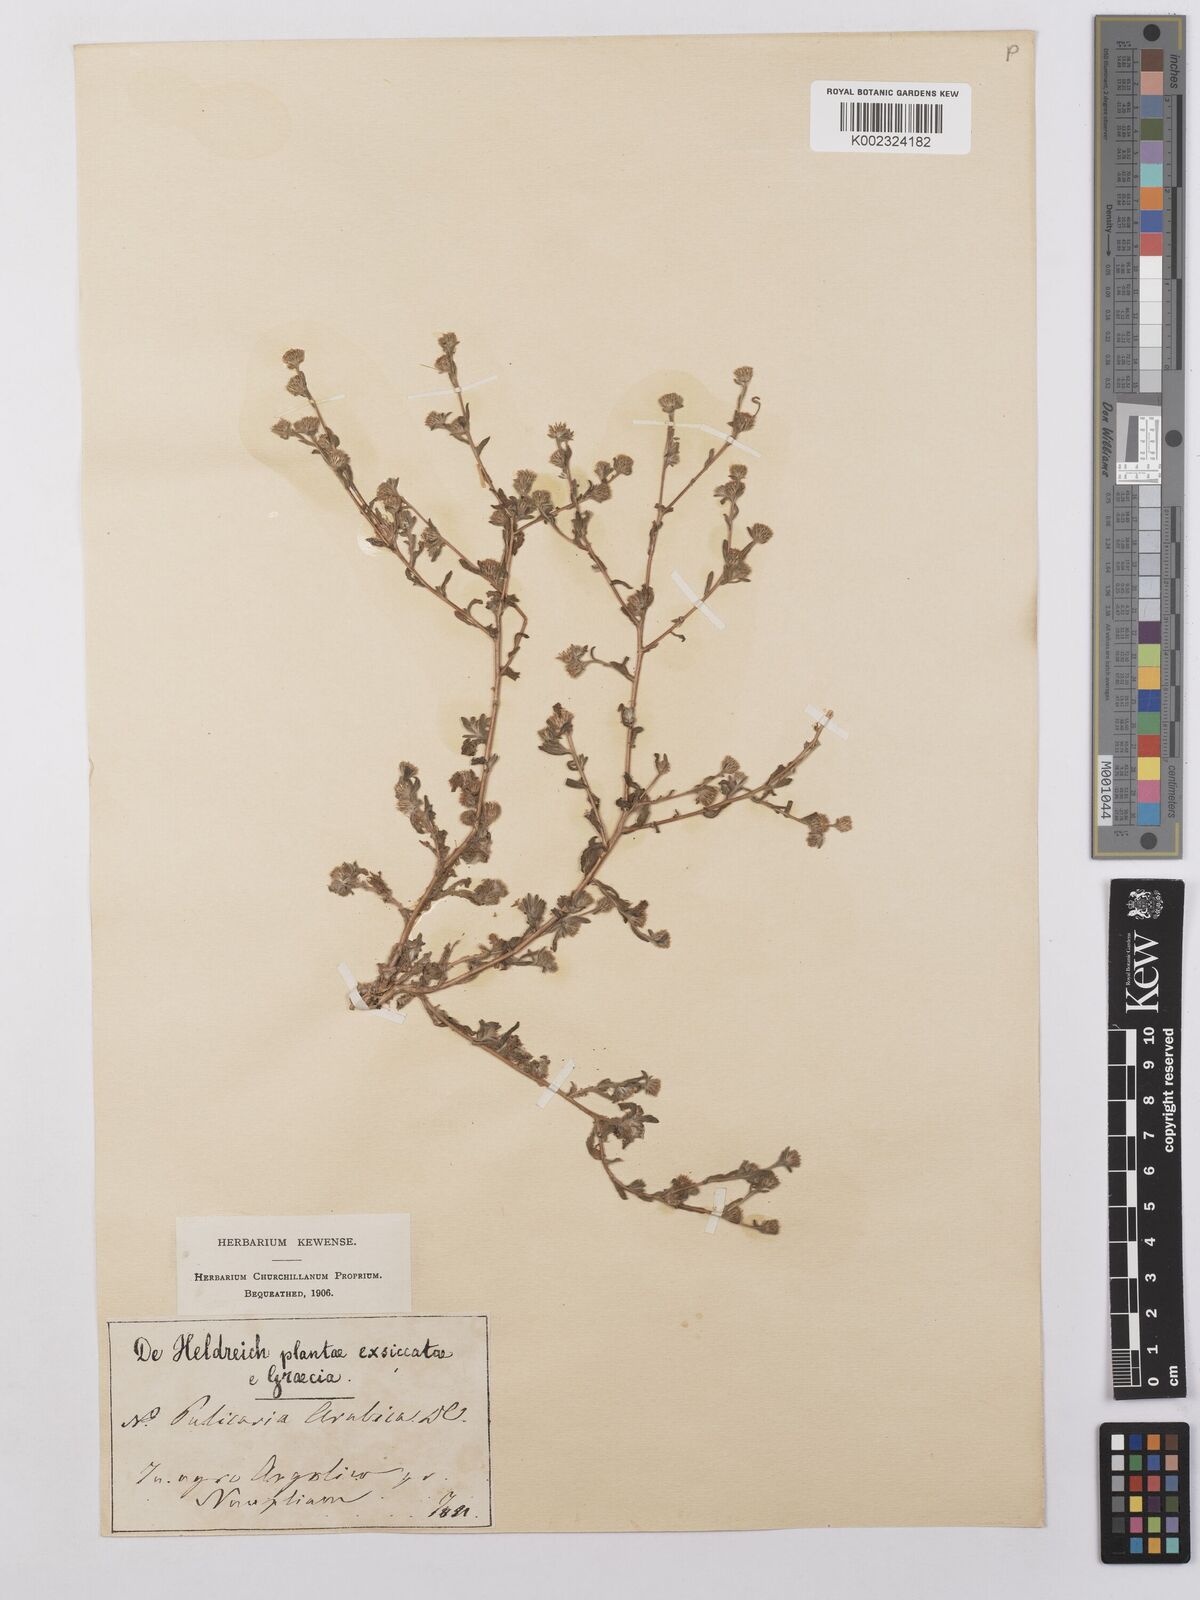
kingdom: Plantae
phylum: Tracheophyta
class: Magnoliopsida
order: Asterales
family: Asteraceae
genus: Pulicaria
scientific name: Pulicaria arabica
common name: Ladies' false fleabane
